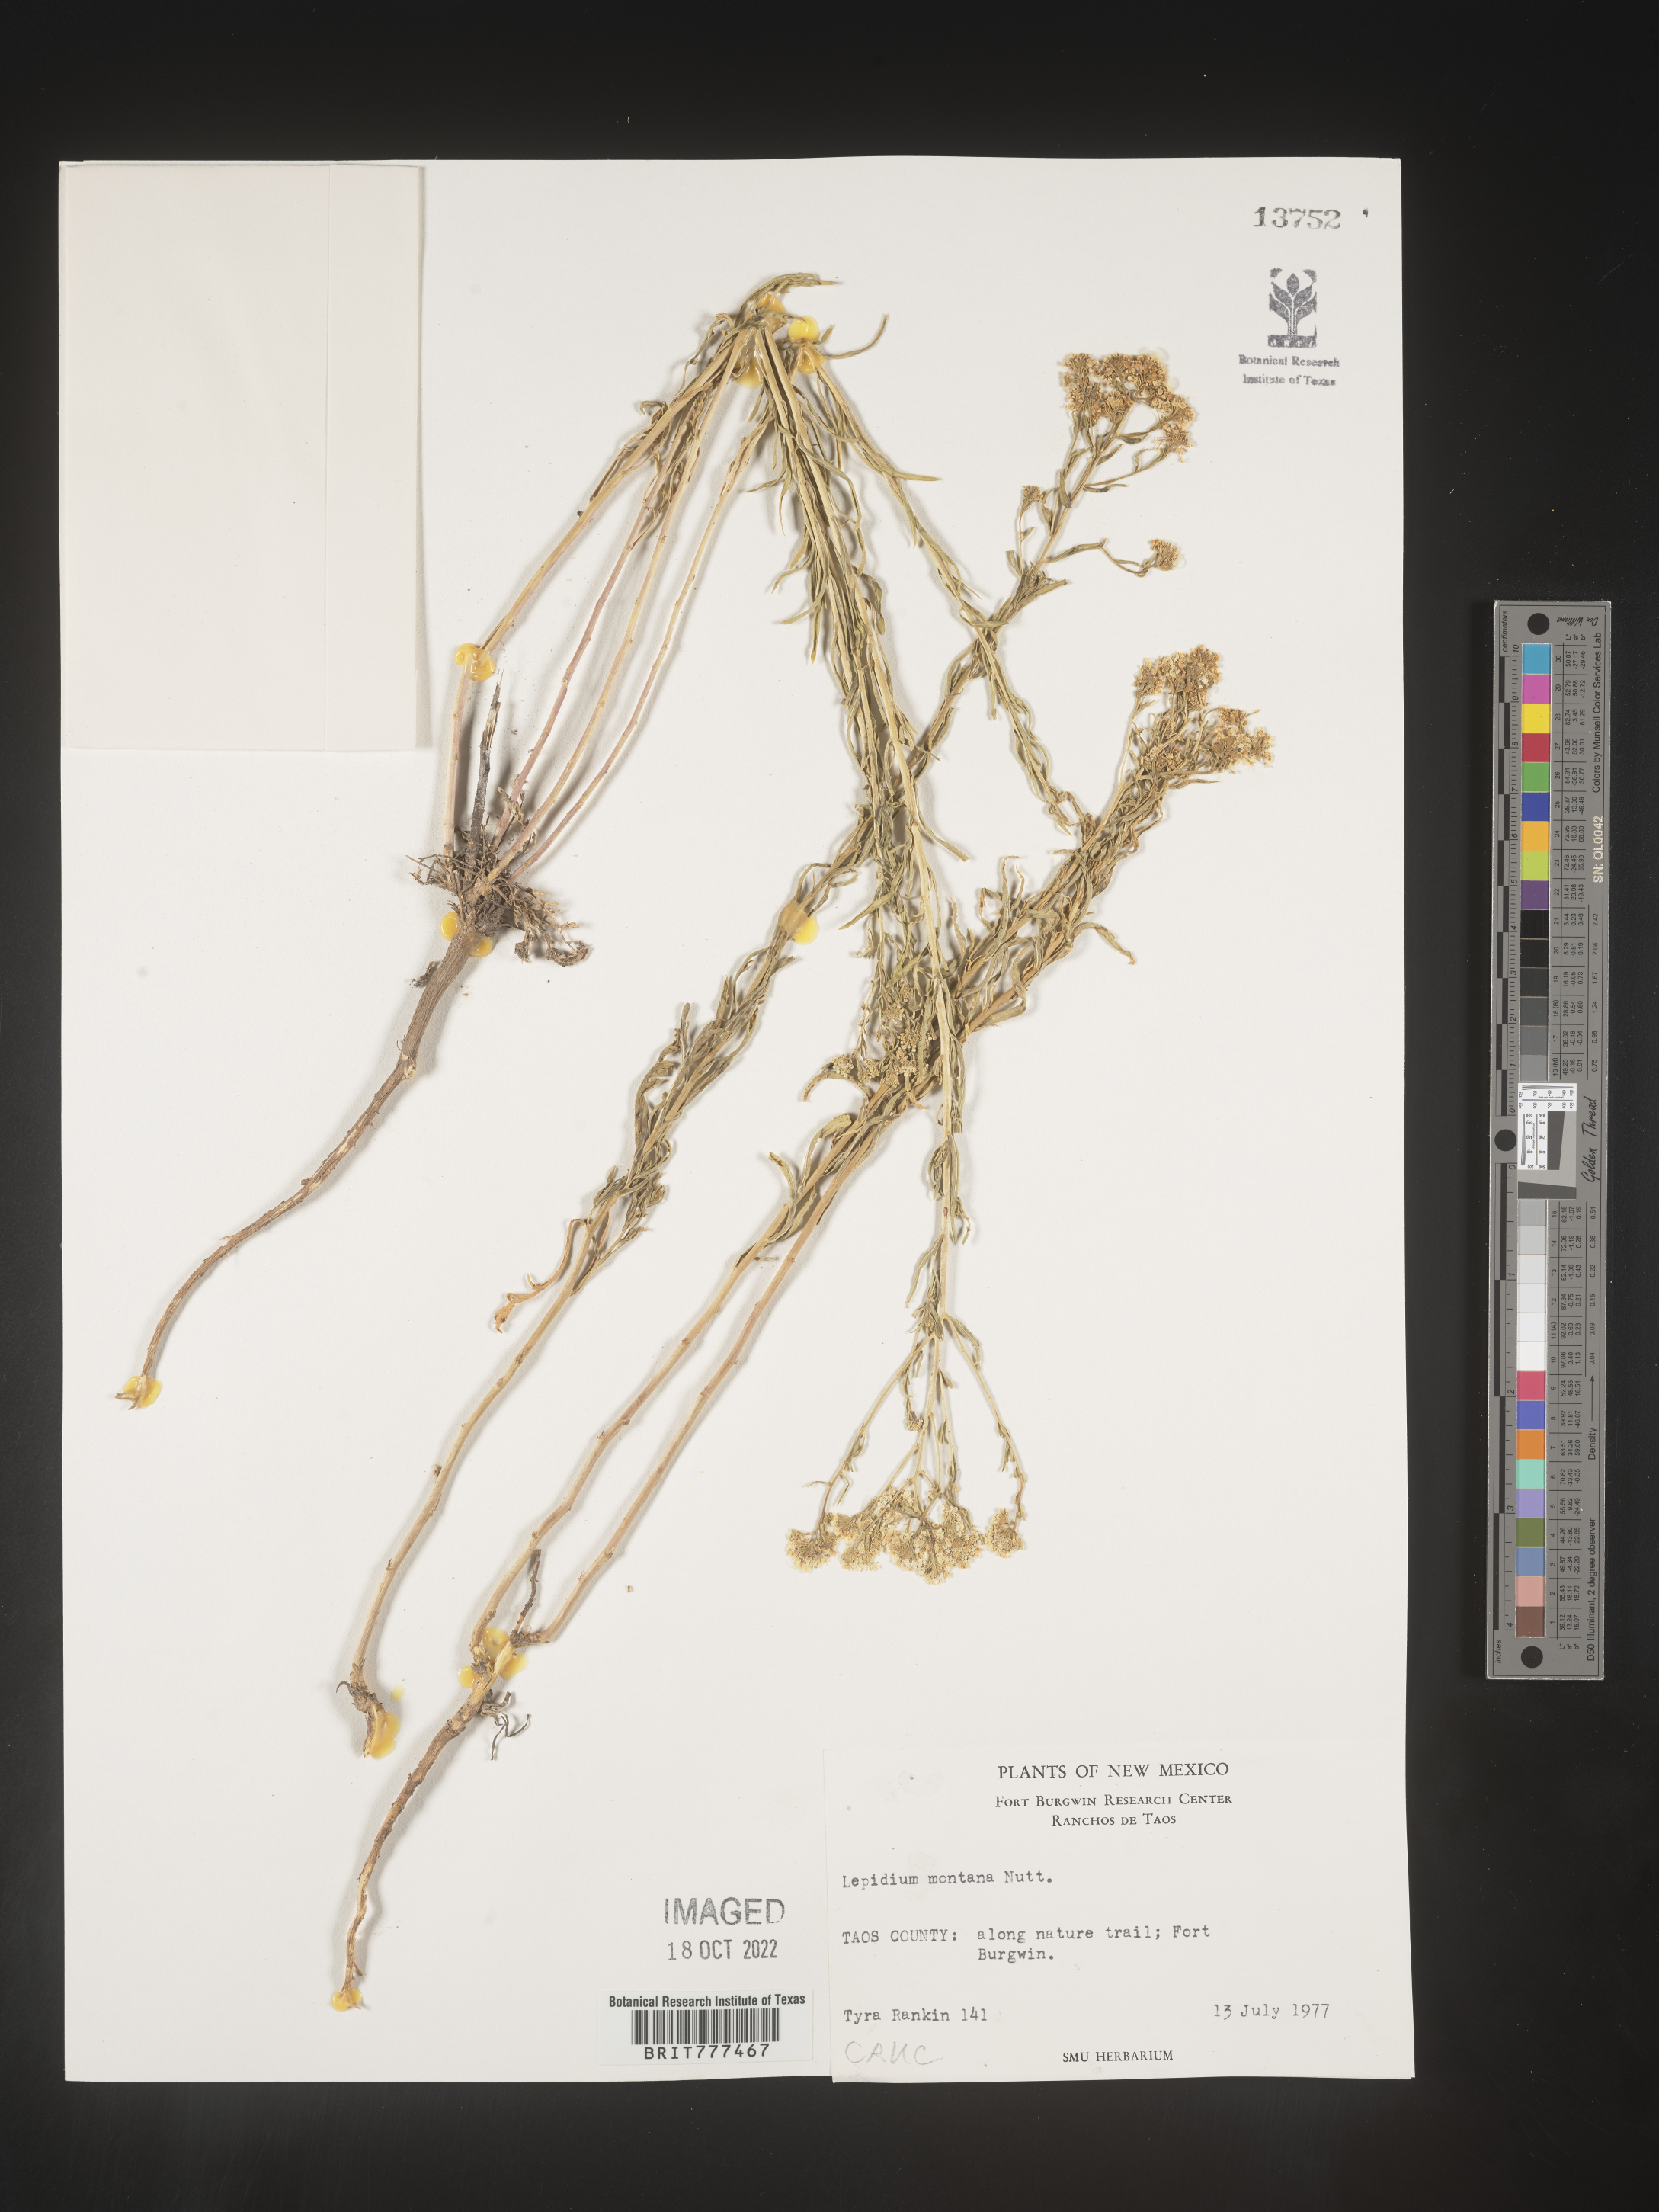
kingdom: Plantae
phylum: Tracheophyta
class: Magnoliopsida
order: Brassicales
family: Brassicaceae
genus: Lepidium
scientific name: Lepidium montanum
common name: Mountain pepperplant
